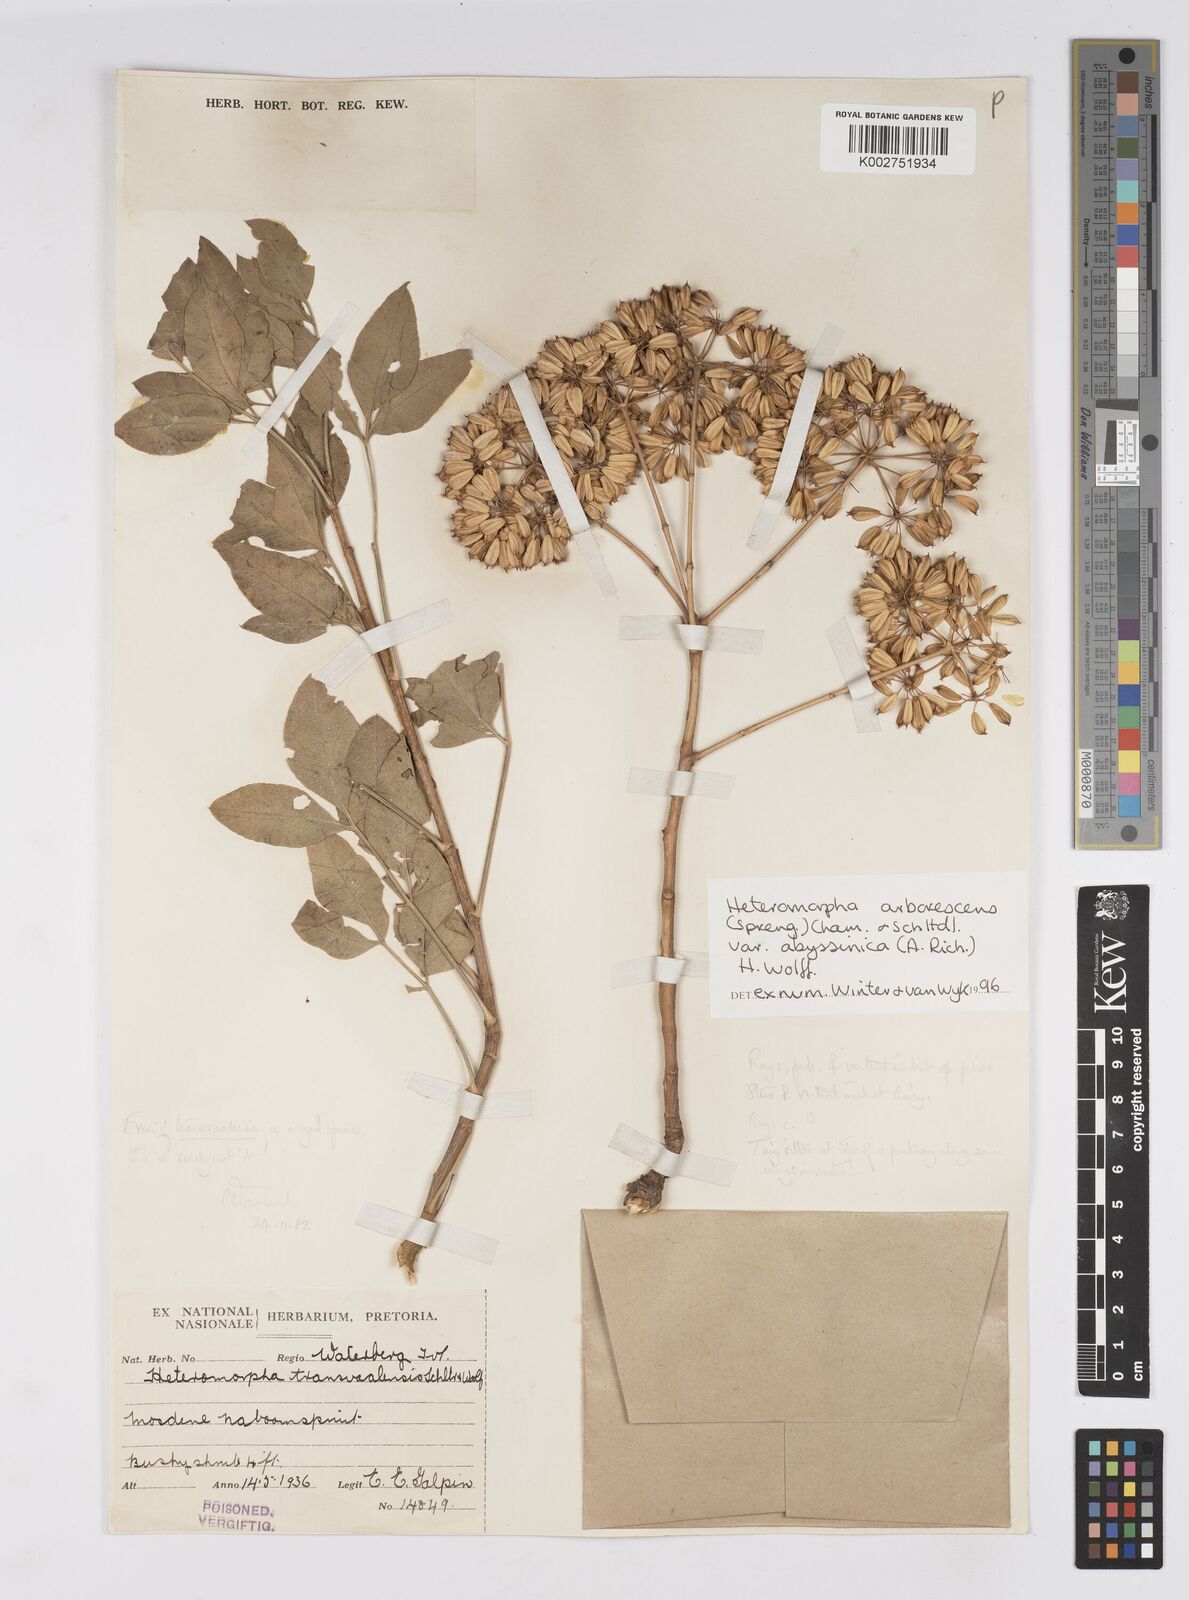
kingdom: Plantae
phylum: Tracheophyta
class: Magnoliopsida
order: Apiales
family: Apiaceae
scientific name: Apiaceae
